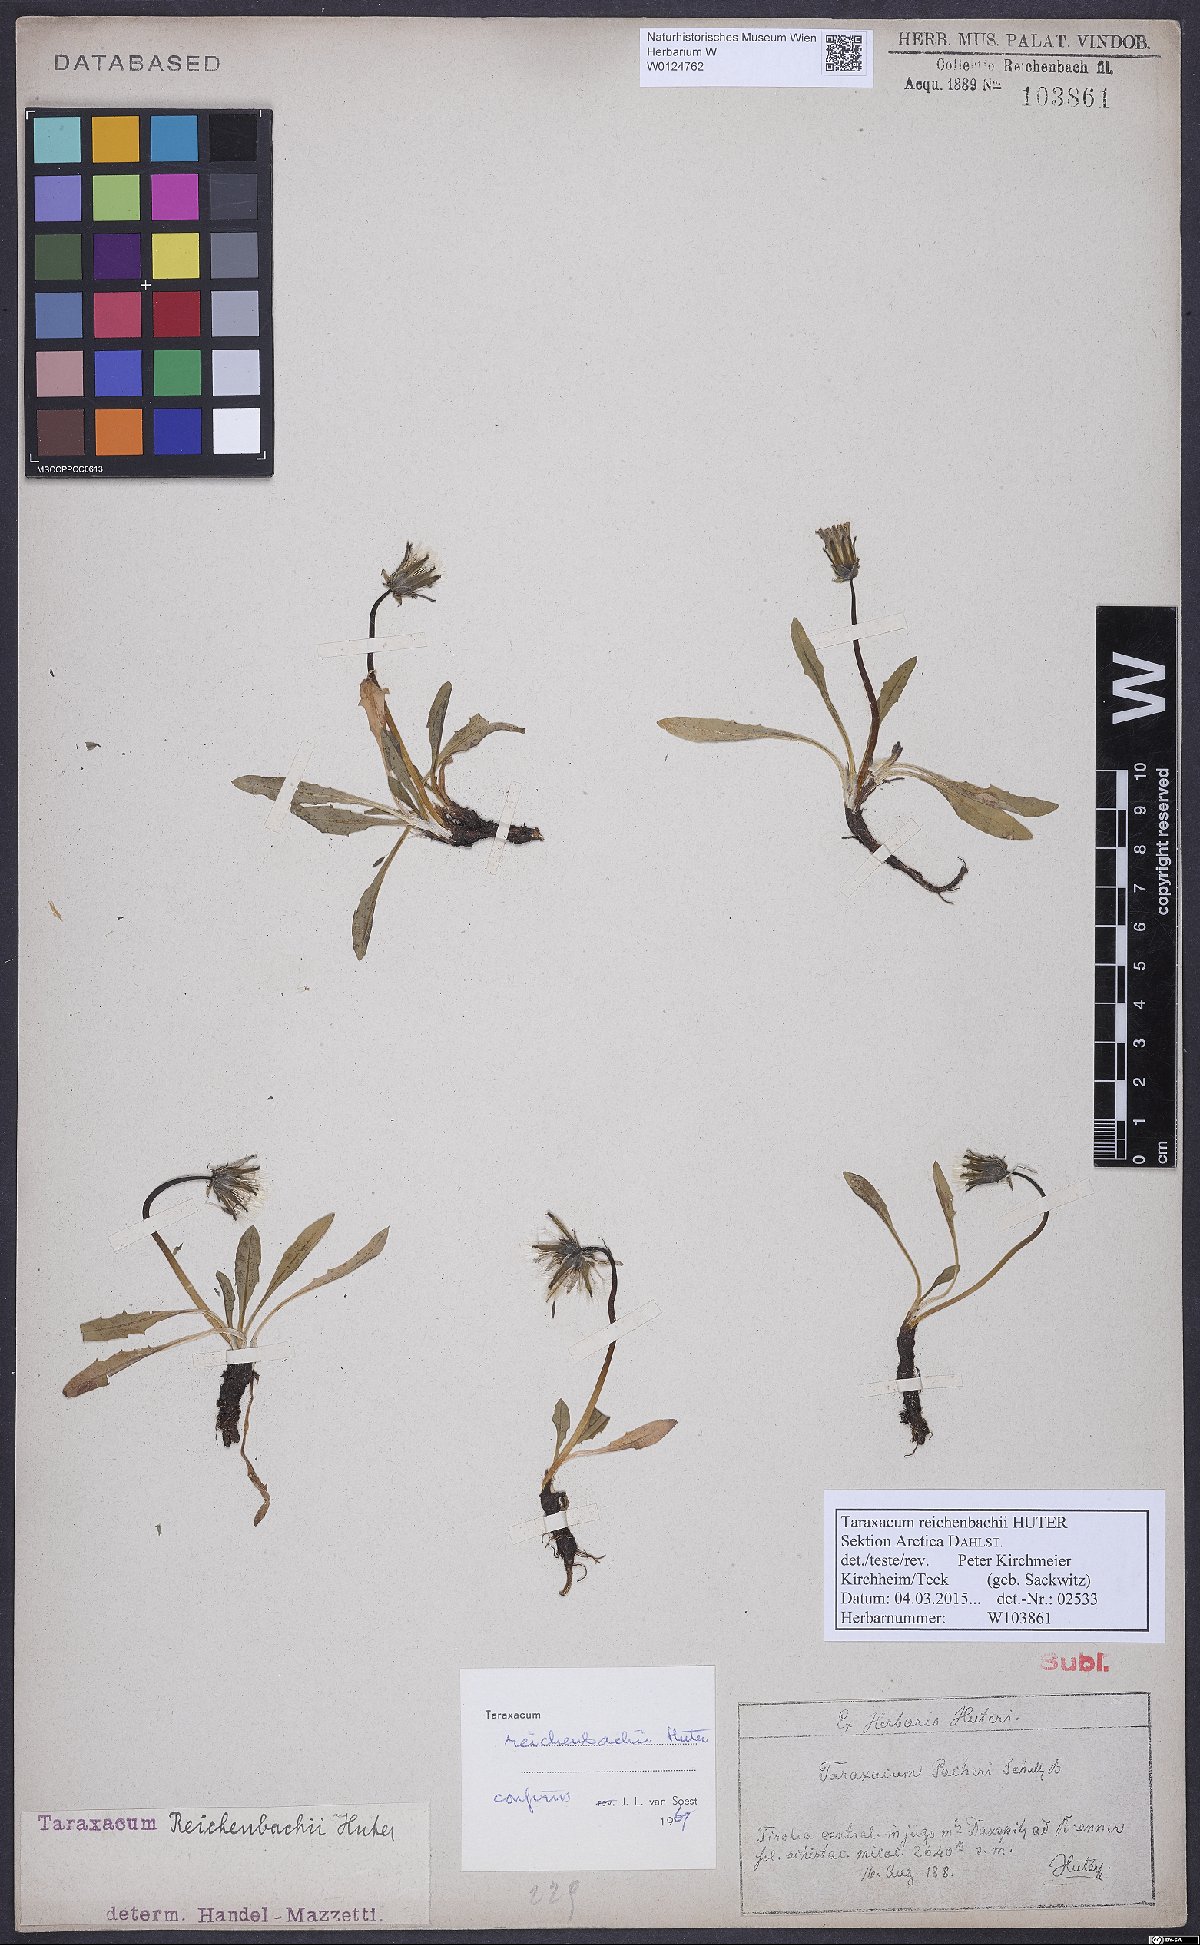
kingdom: Plantae
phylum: Tracheophyta
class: Magnoliopsida
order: Asterales
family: Asteraceae
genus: Taraxacum
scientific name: Taraxacum reichenbachii
